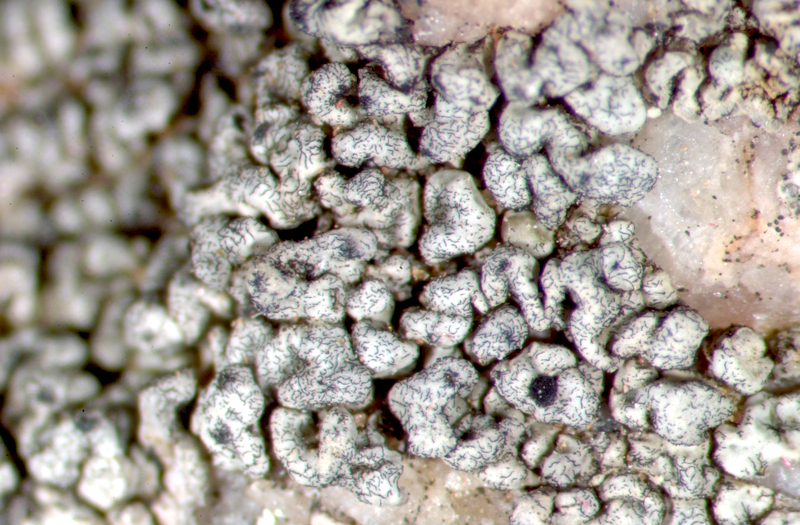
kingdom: Fungi
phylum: Ascomycota
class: Lecanoromycetes
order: Lecideales
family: Lecideaceae
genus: Lecidea
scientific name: Lecidea
